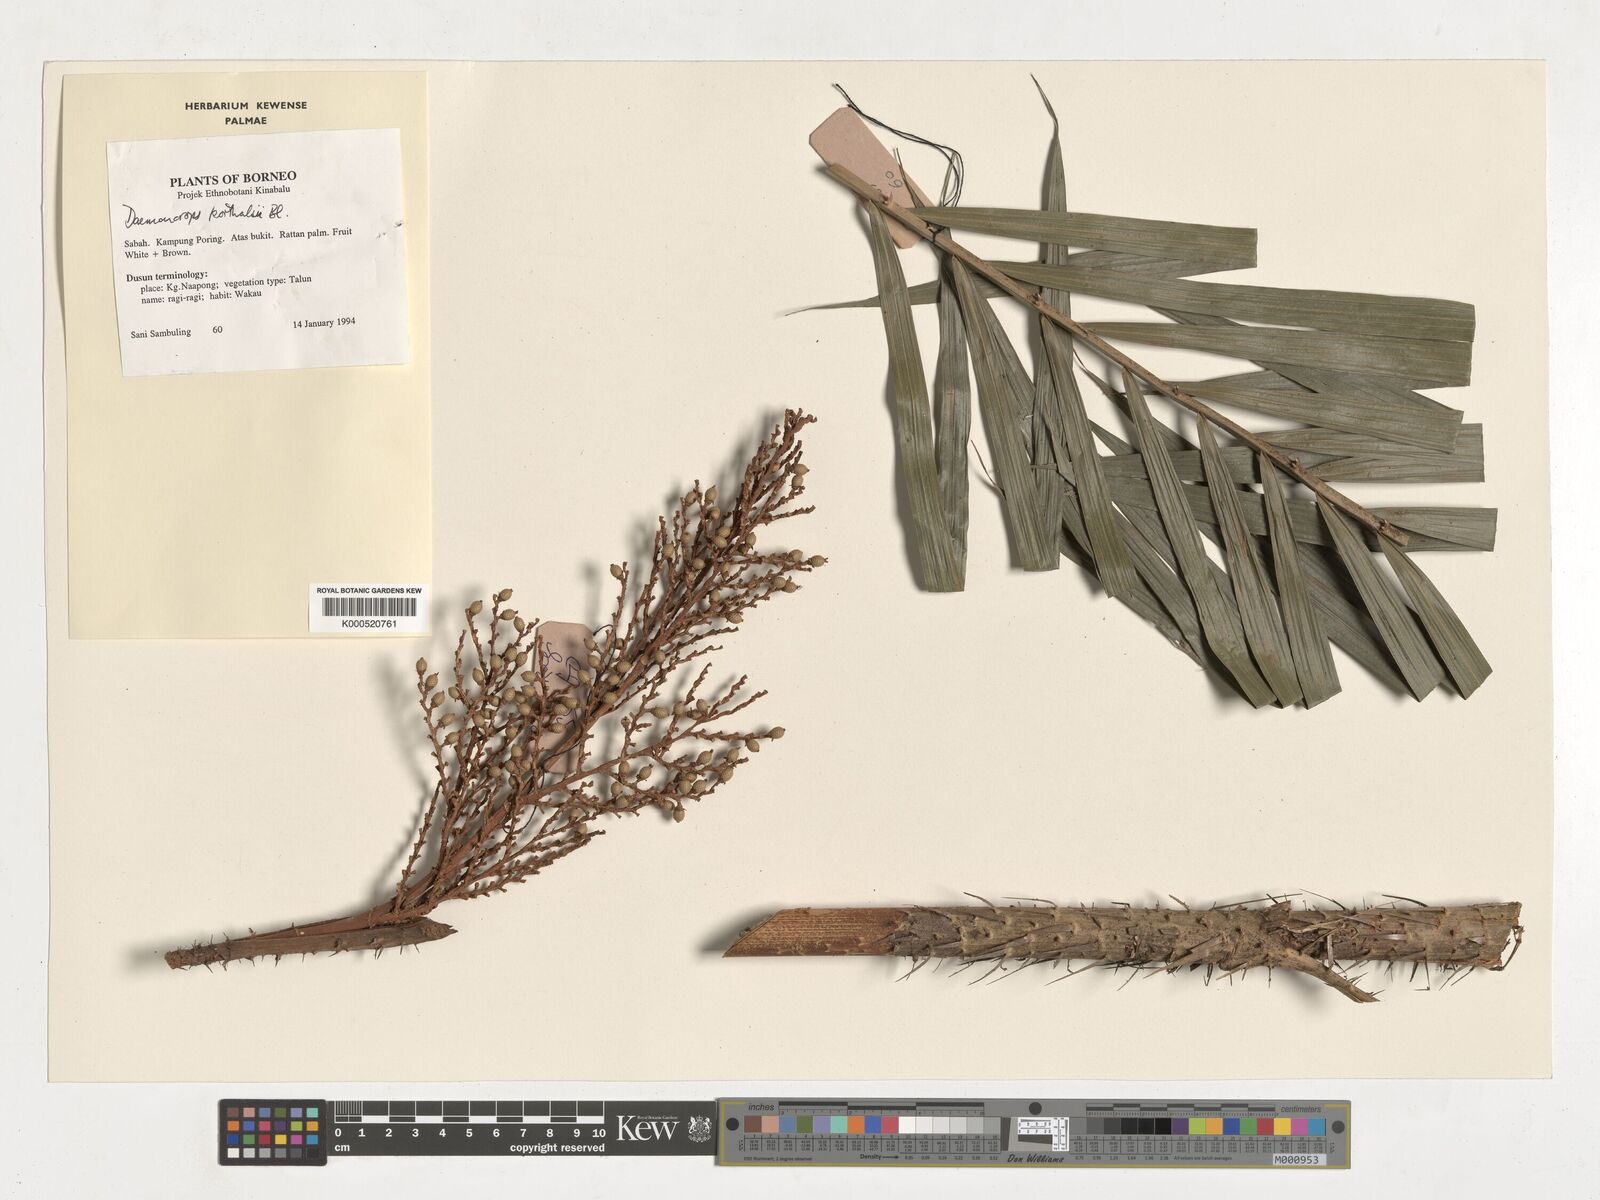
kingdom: Plantae
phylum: Tracheophyta
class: Liliopsida
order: Arecales
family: Arecaceae
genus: Calamus
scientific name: Calamus hirsutus
